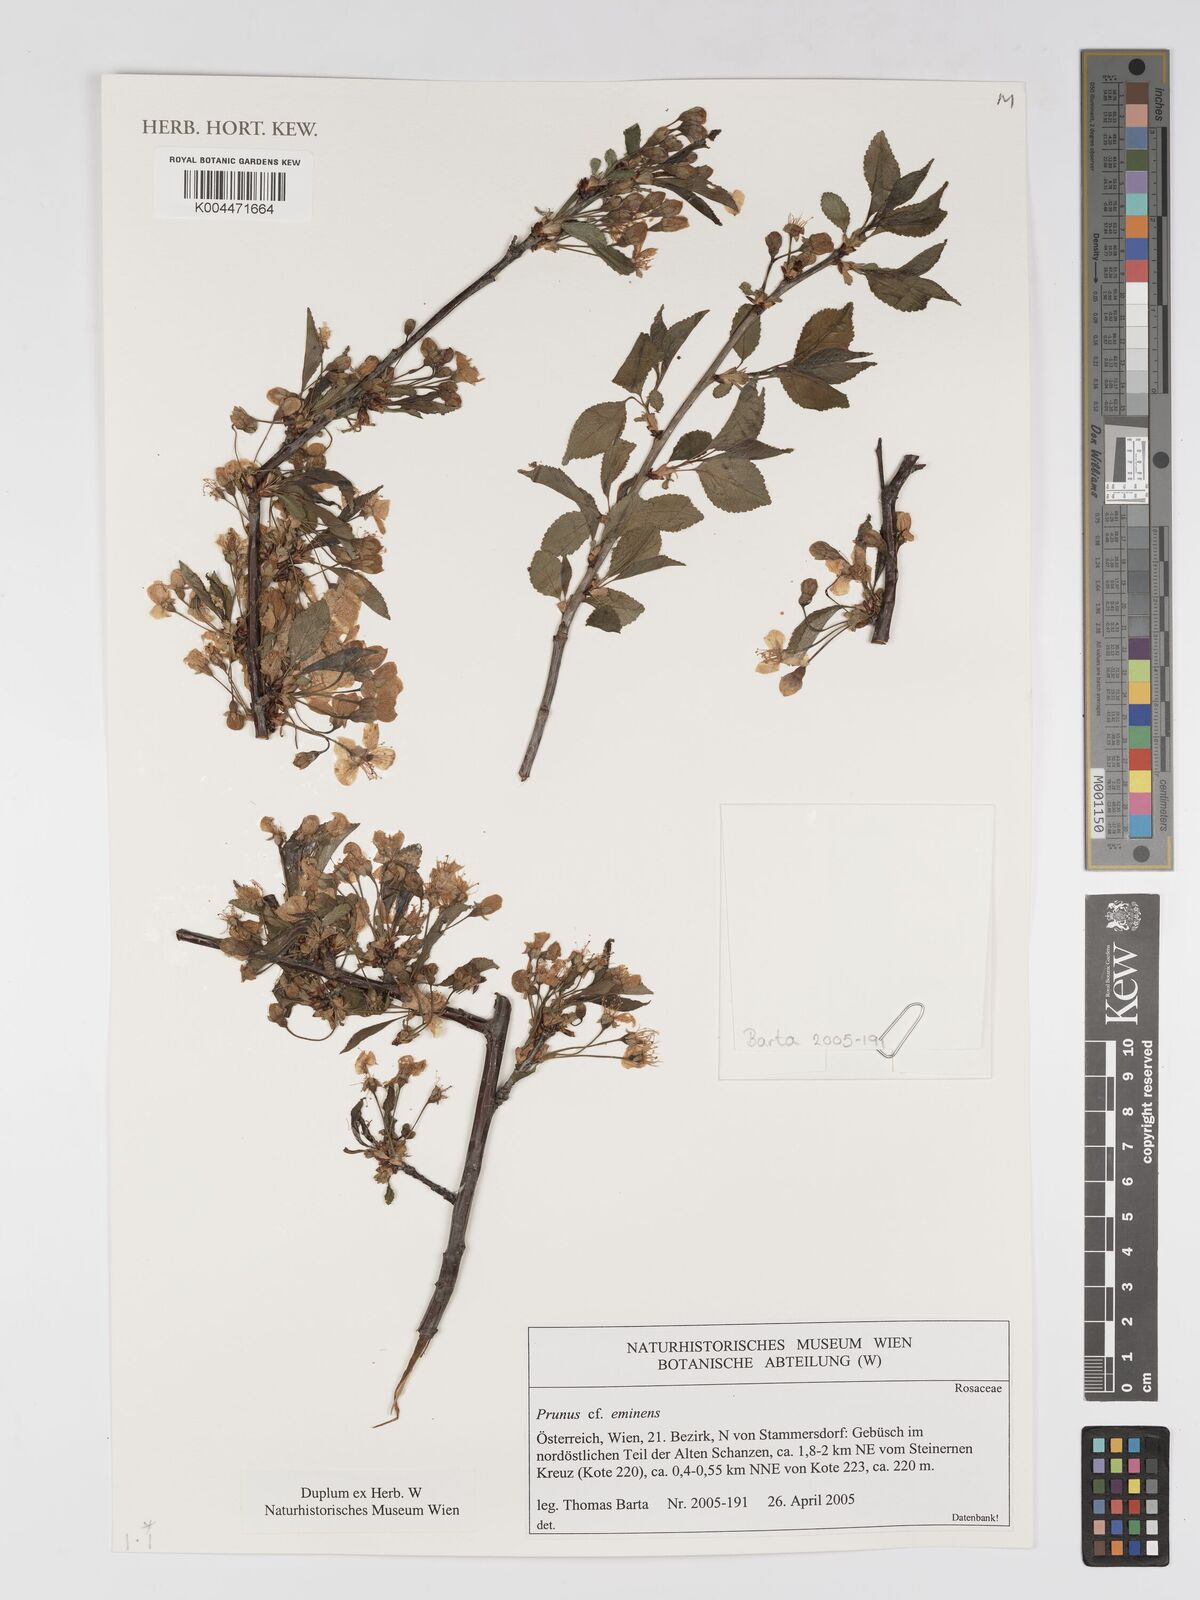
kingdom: Plantae
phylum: Tracheophyta
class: Magnoliopsida
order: Rosales
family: Rosaceae
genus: Prunus
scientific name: Prunus eminens
